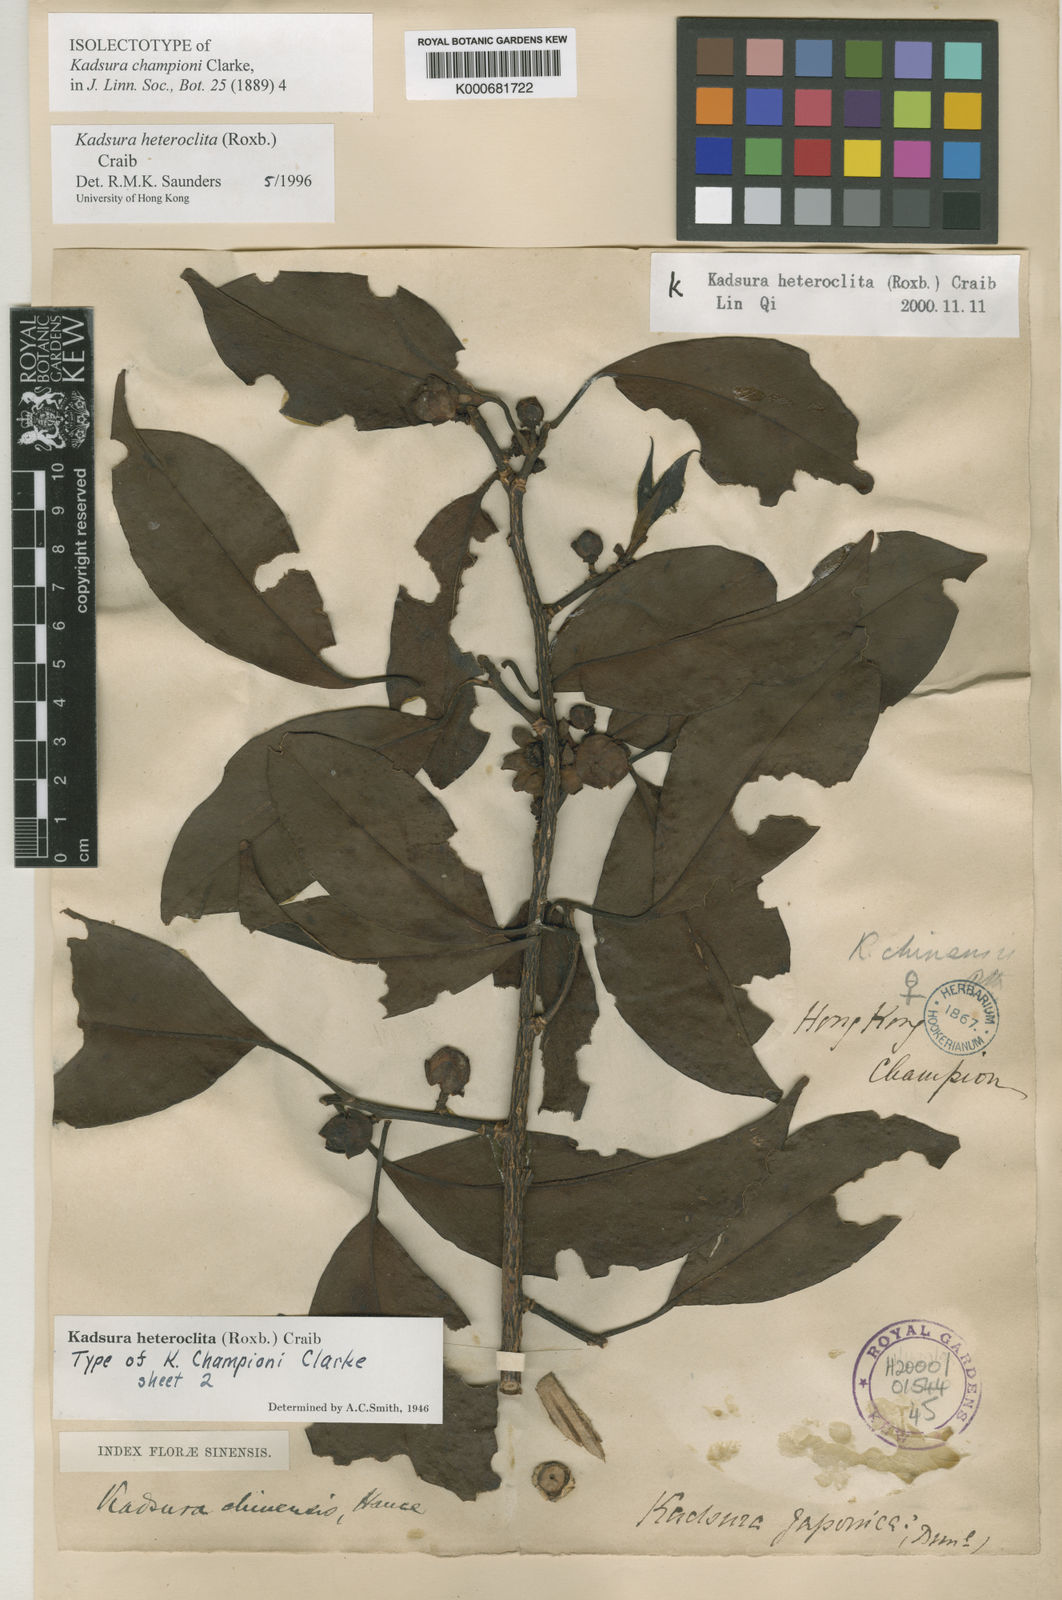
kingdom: Plantae
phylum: Tracheophyta
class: Magnoliopsida
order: Austrobaileyales
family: Schisandraceae
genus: Kadsura
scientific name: Kadsura heteroclita
